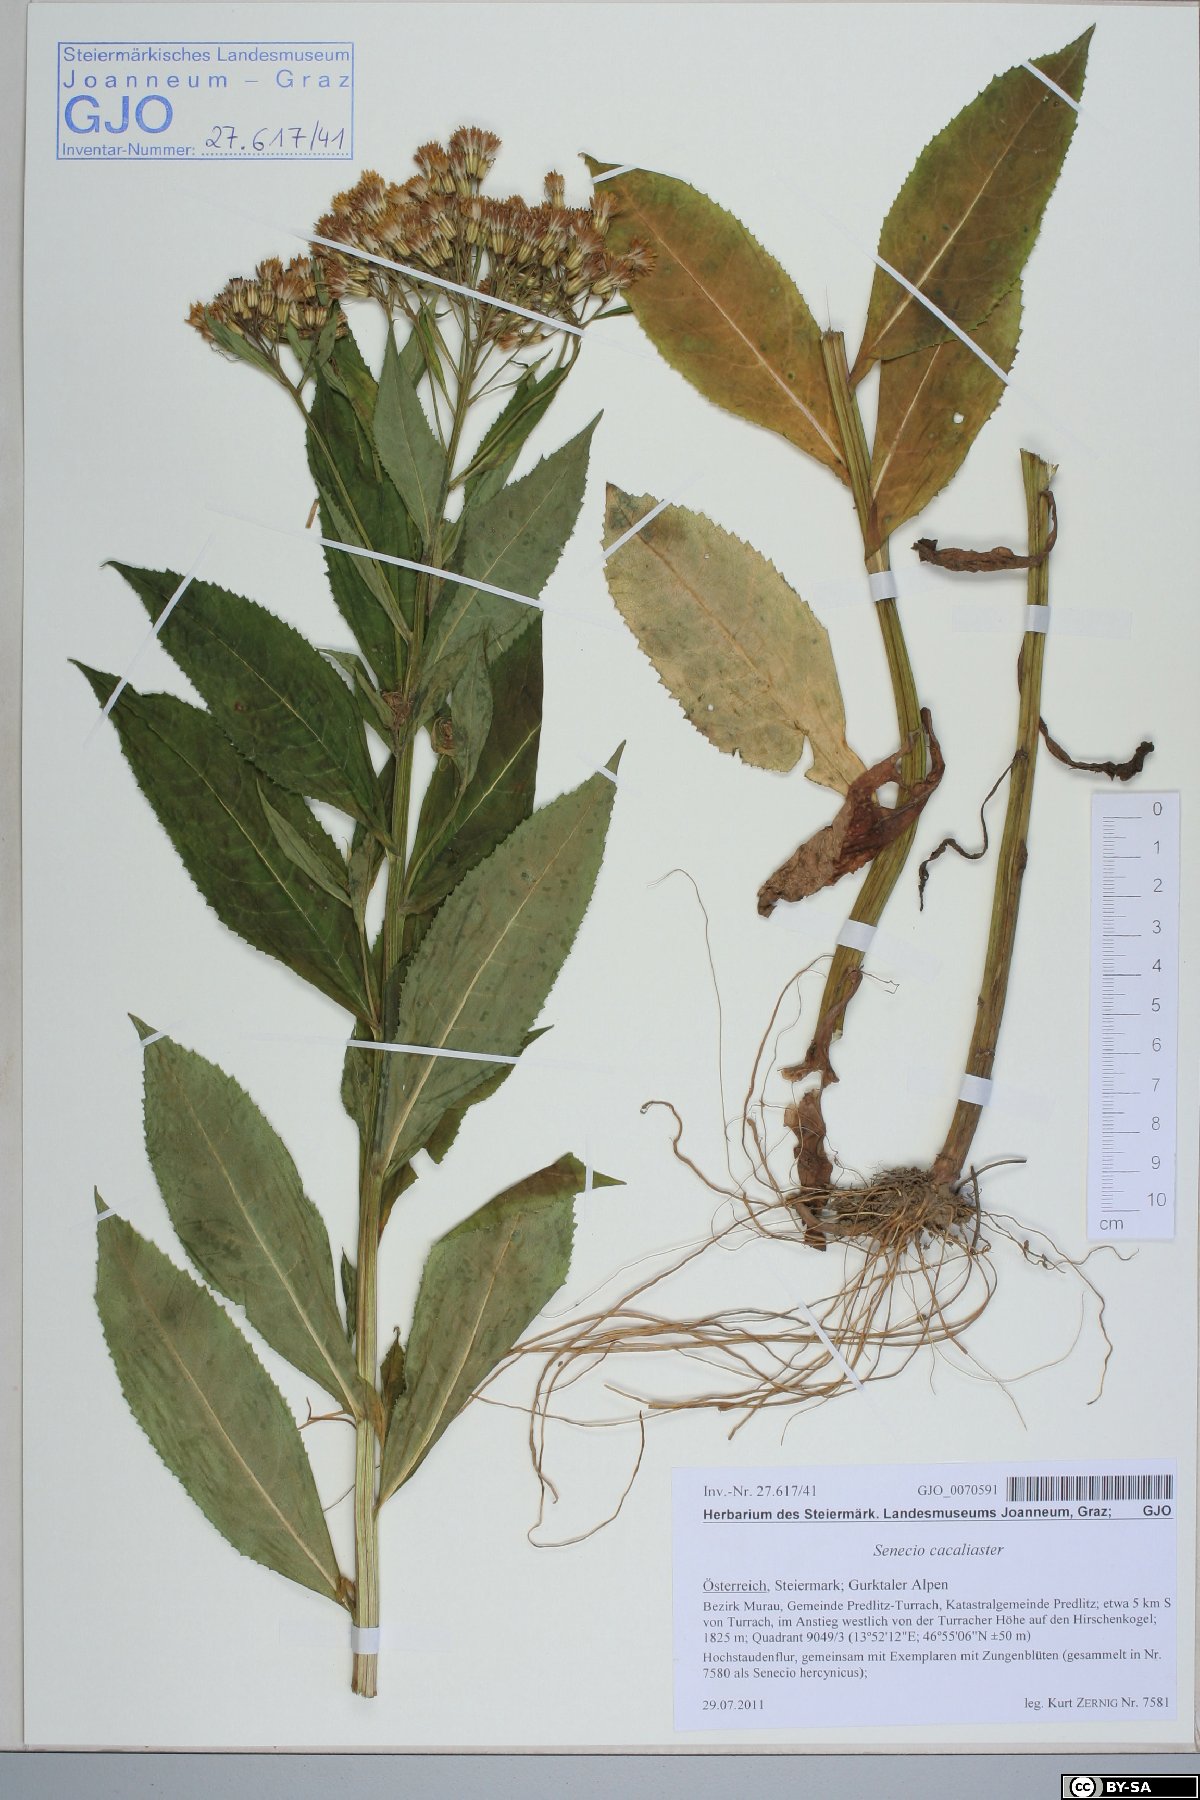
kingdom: Plantae
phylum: Tracheophyta
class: Magnoliopsida
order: Asterales
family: Asteraceae
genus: Senecio
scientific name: Senecio cacaliaster
